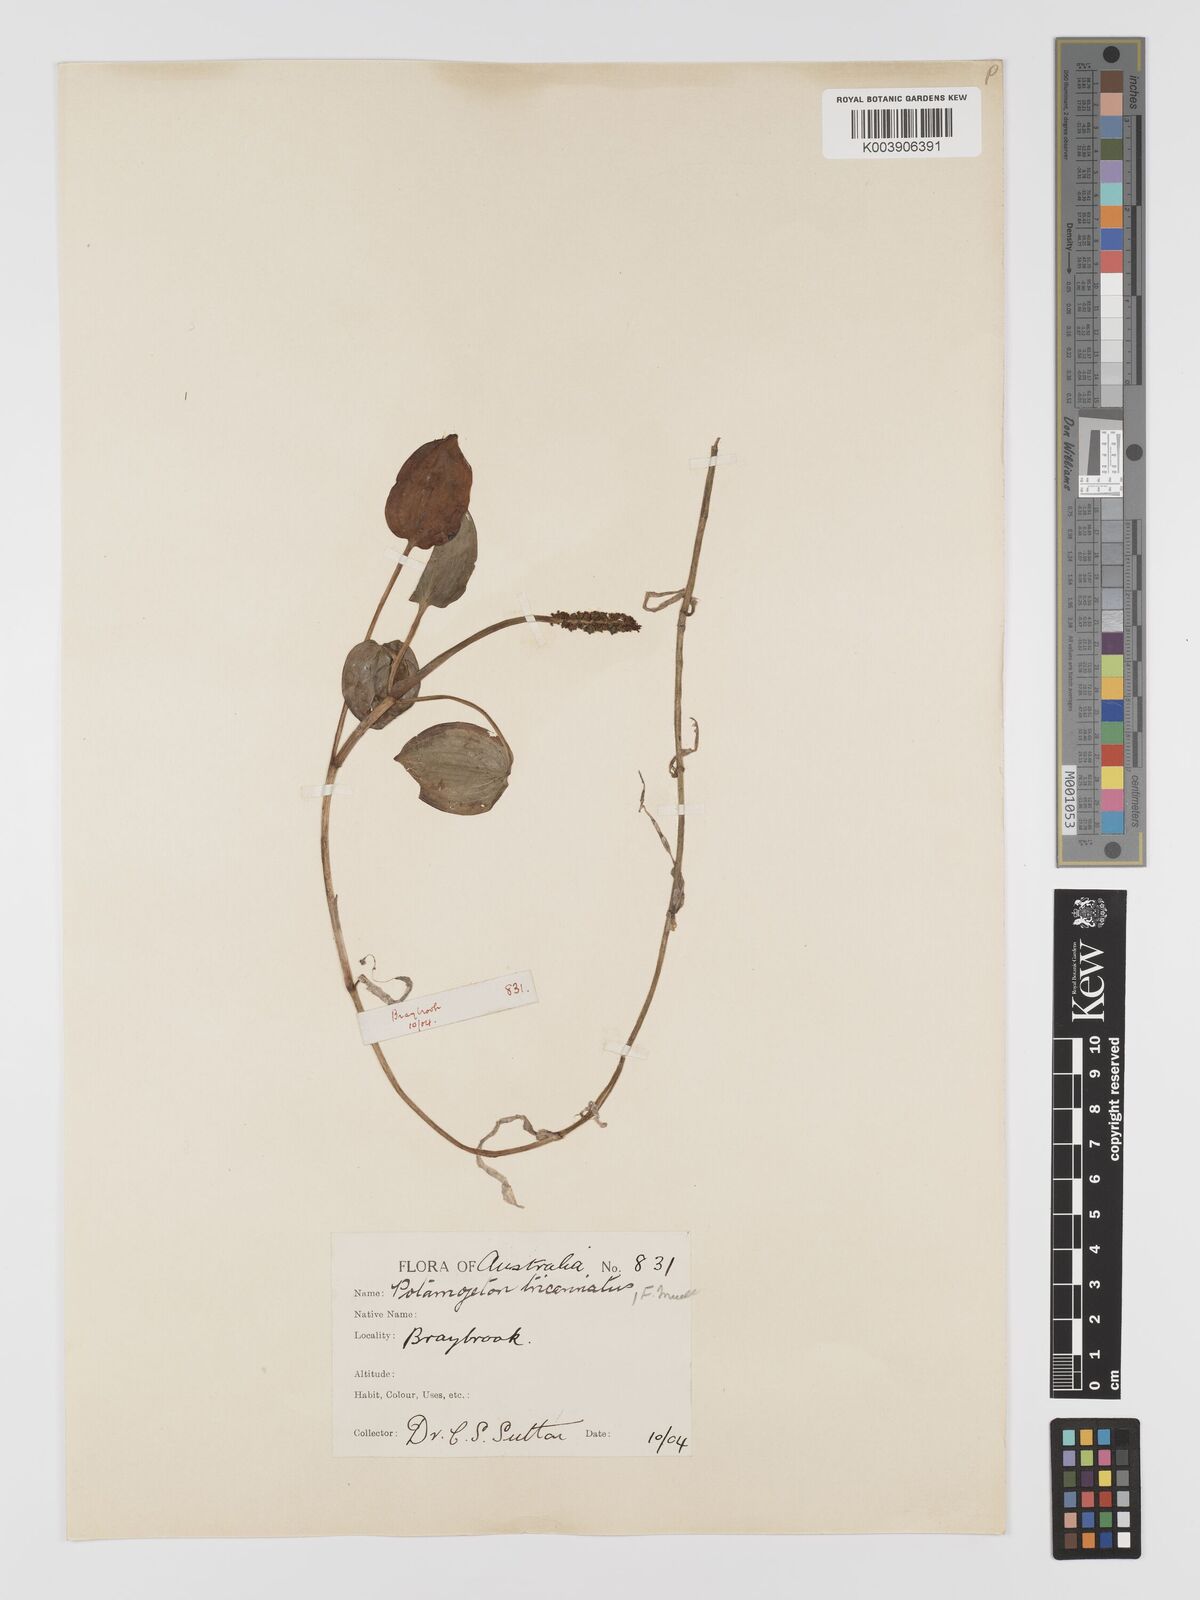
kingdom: Plantae
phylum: Tracheophyta
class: Liliopsida
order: Alismatales
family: Potamogetonaceae
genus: Potamogeton
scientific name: Potamogeton tricarinatus
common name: Pondweed
